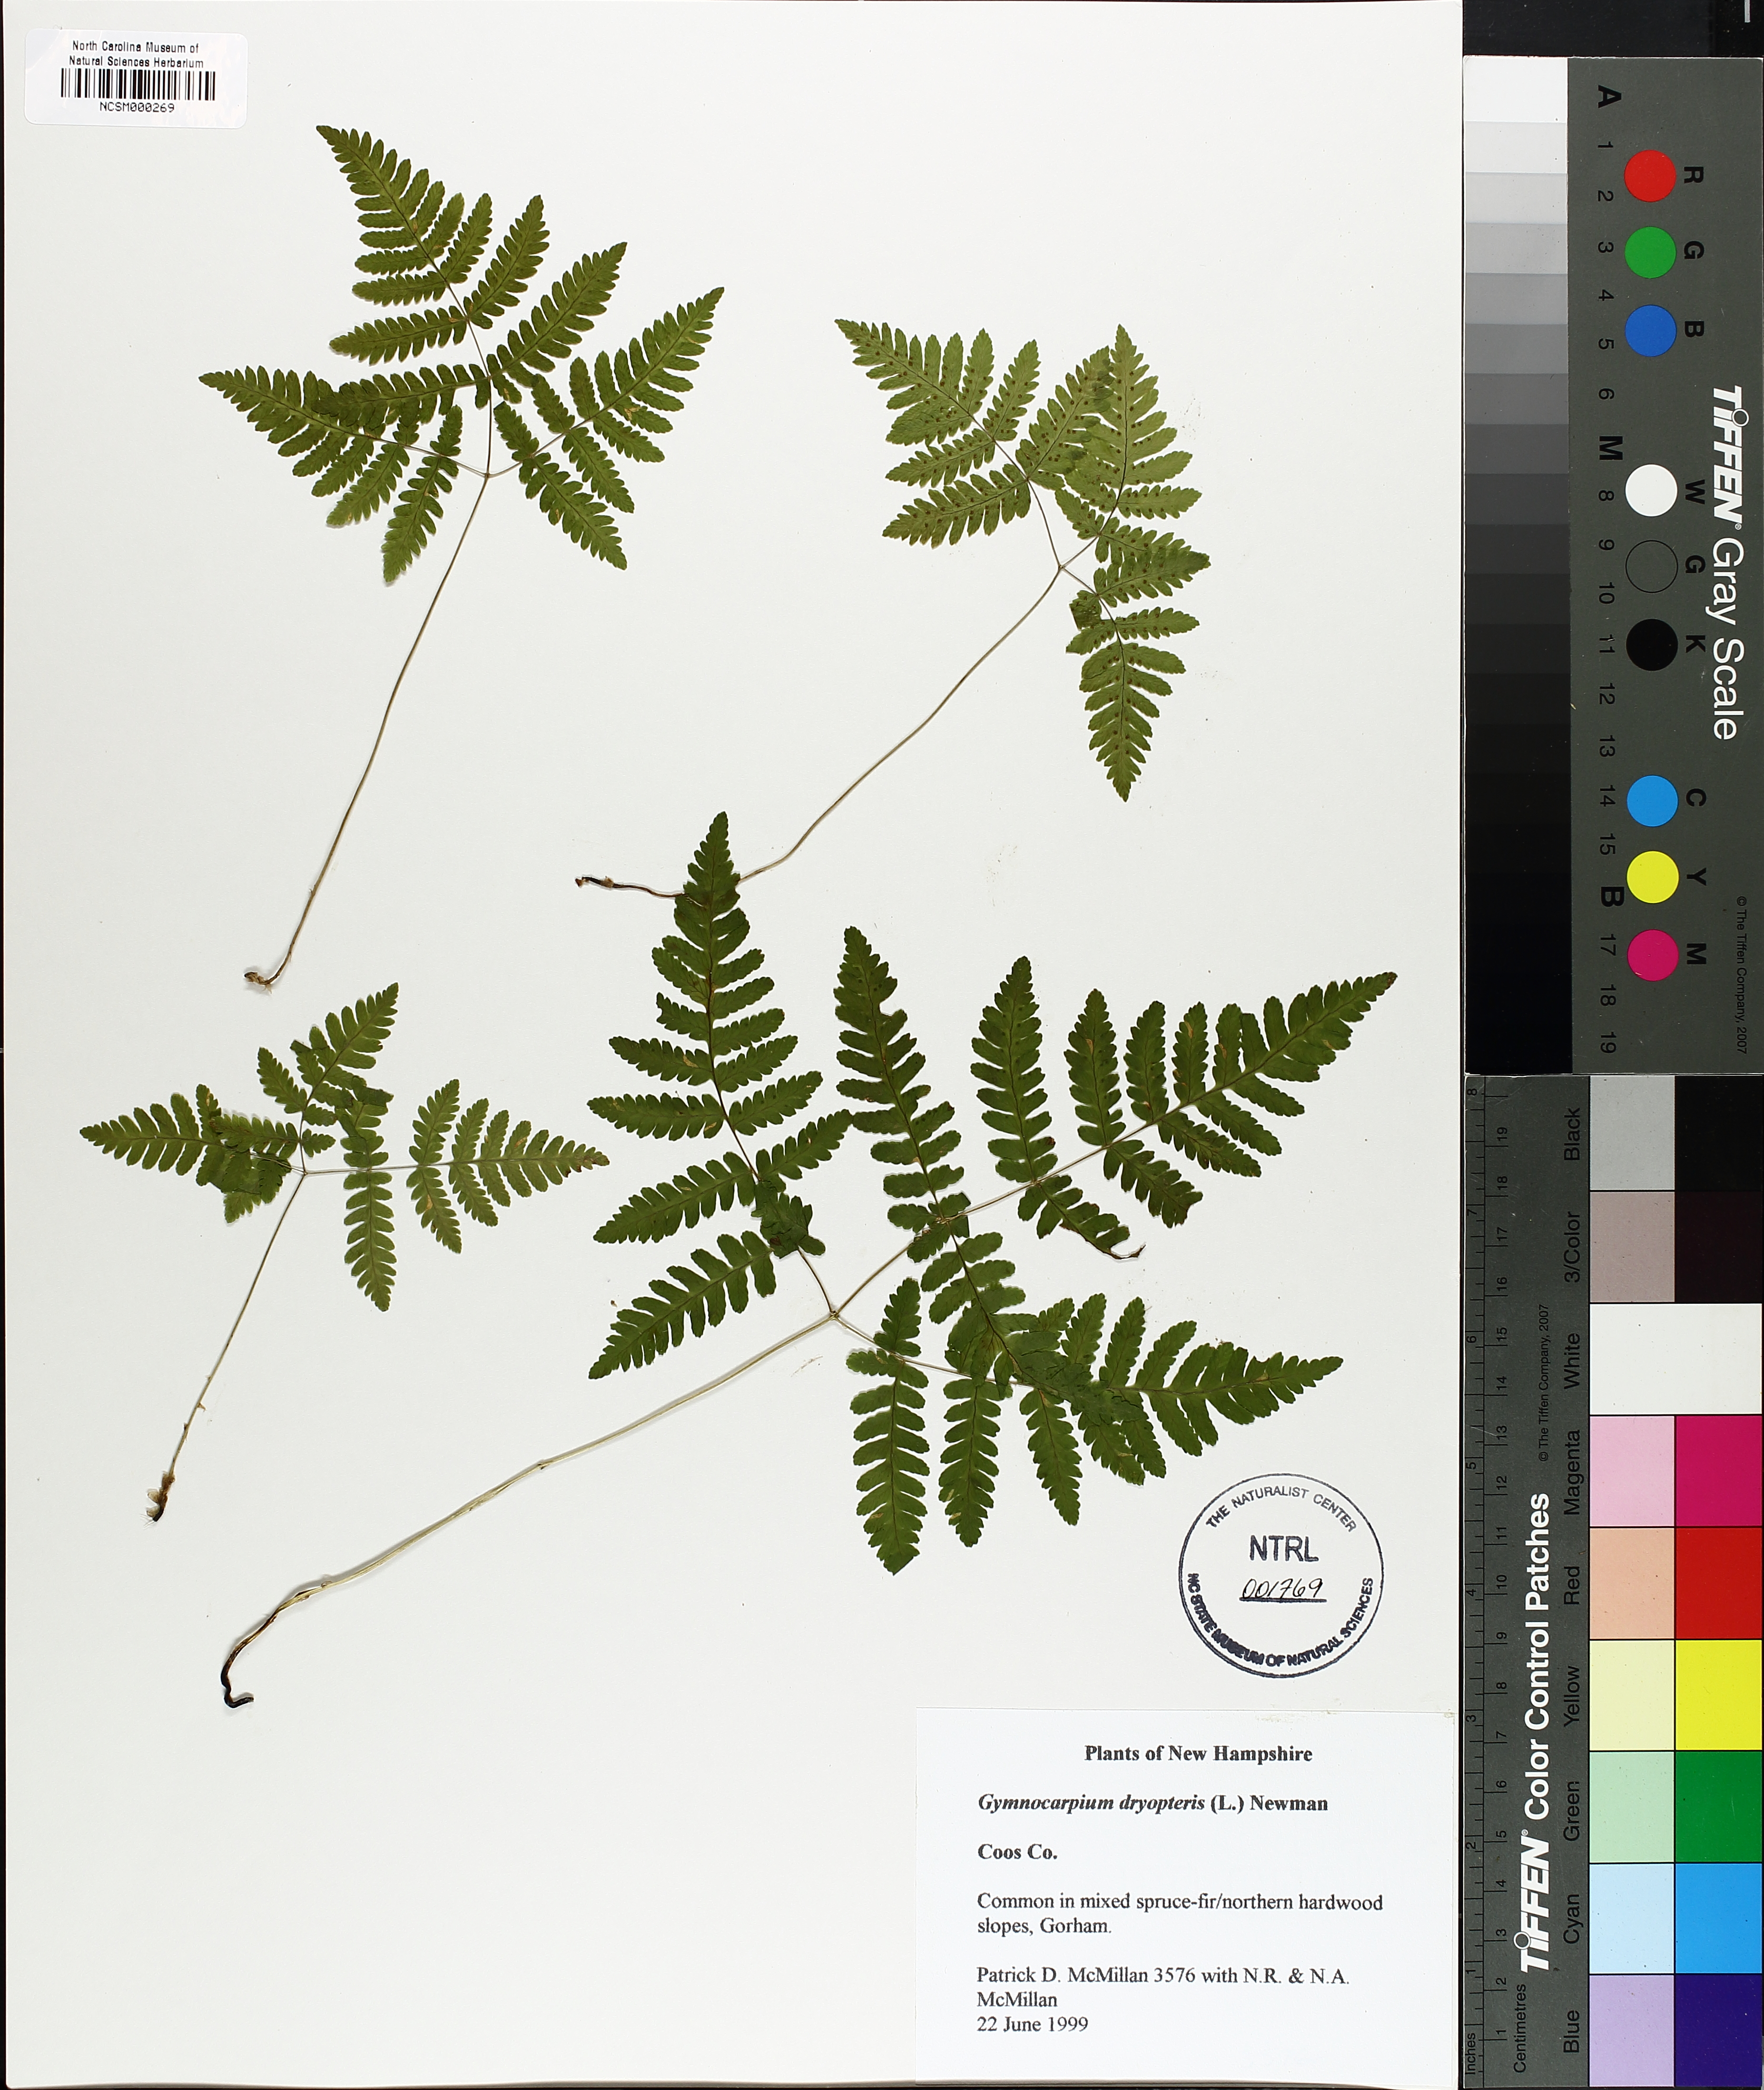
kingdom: Plantae
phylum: Tracheophyta
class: Polypodiopsida
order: Polypodiales
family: Cystopteridaceae
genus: Gymnocarpium
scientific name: Gymnocarpium dryopteris
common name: Oak fern
